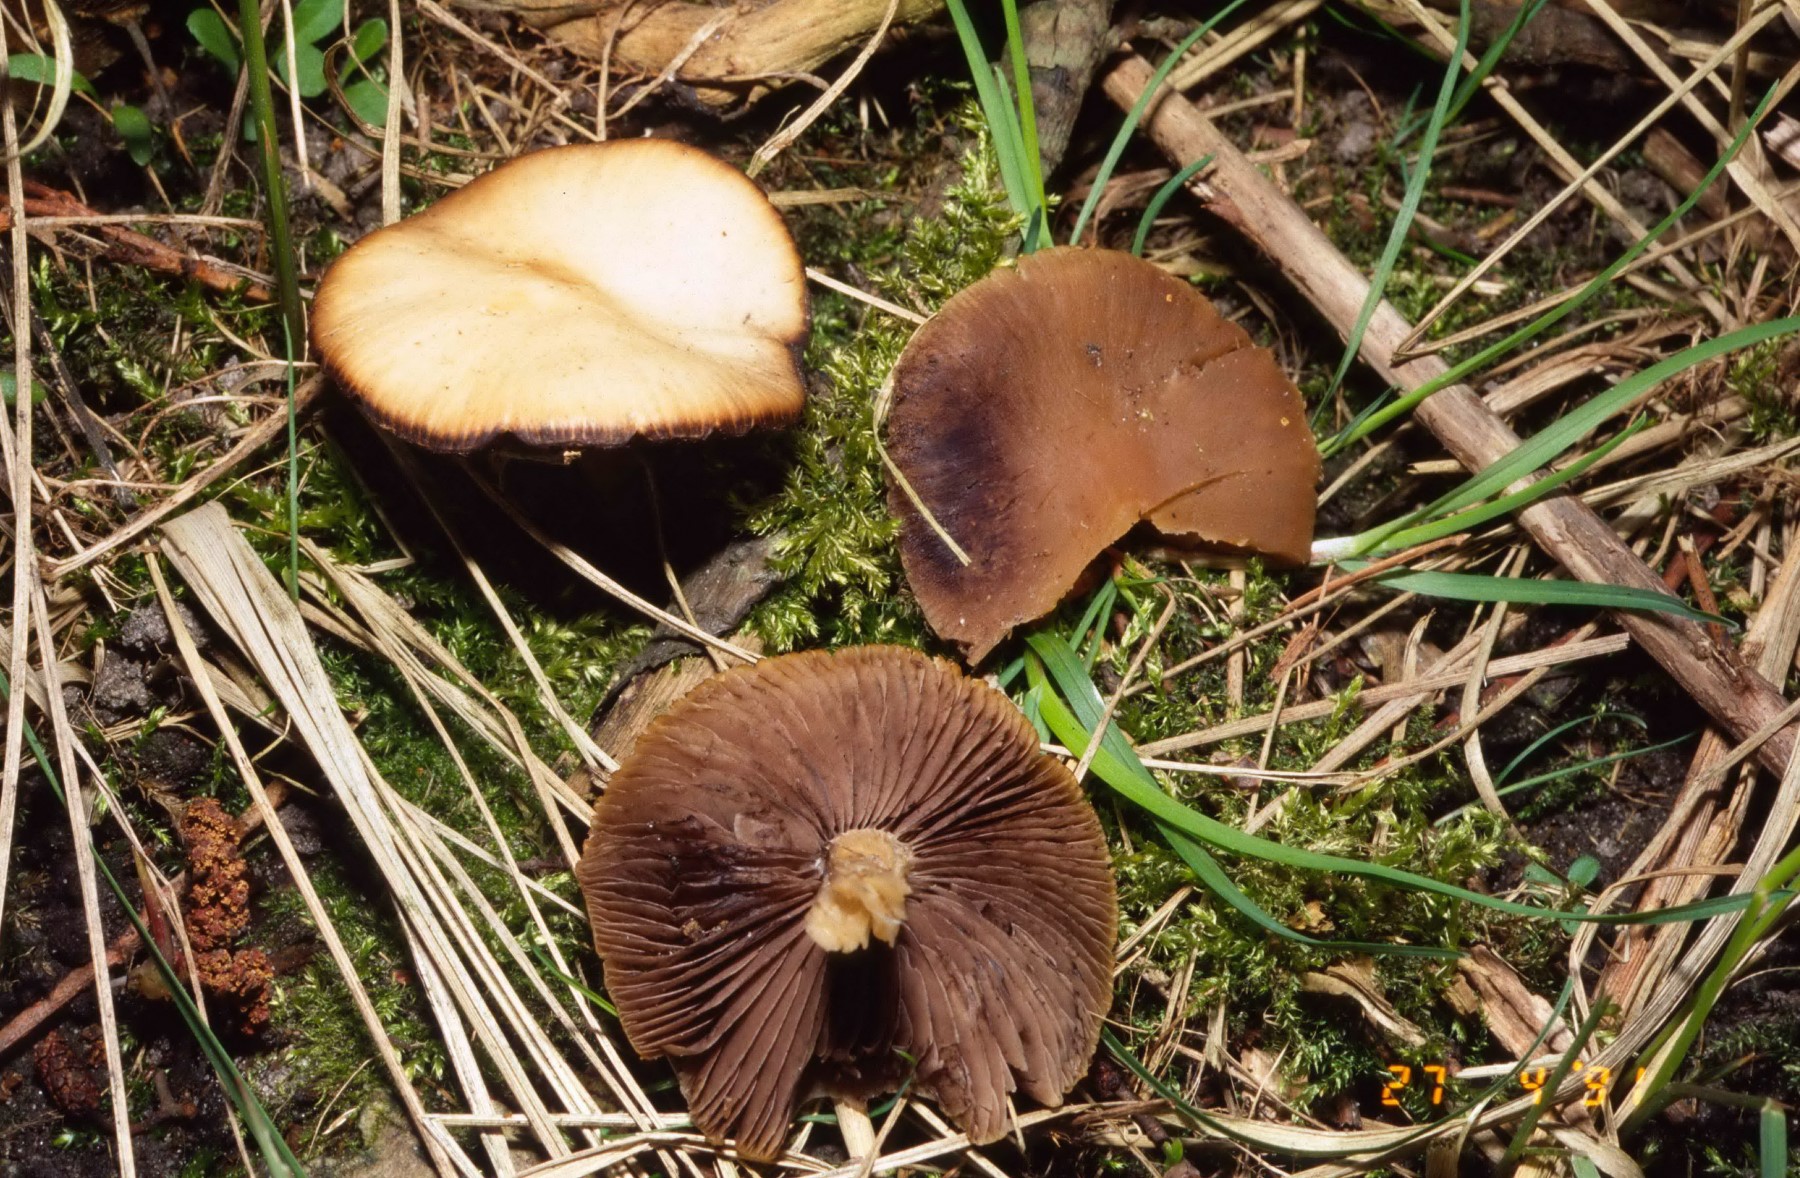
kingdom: Fungi
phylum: Basidiomycota
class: Agaricomycetes
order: Agaricales
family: Psathyrellaceae
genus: Psathyrella
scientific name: Psathyrella spadiceogrisea
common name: gråbrun mørkhat
